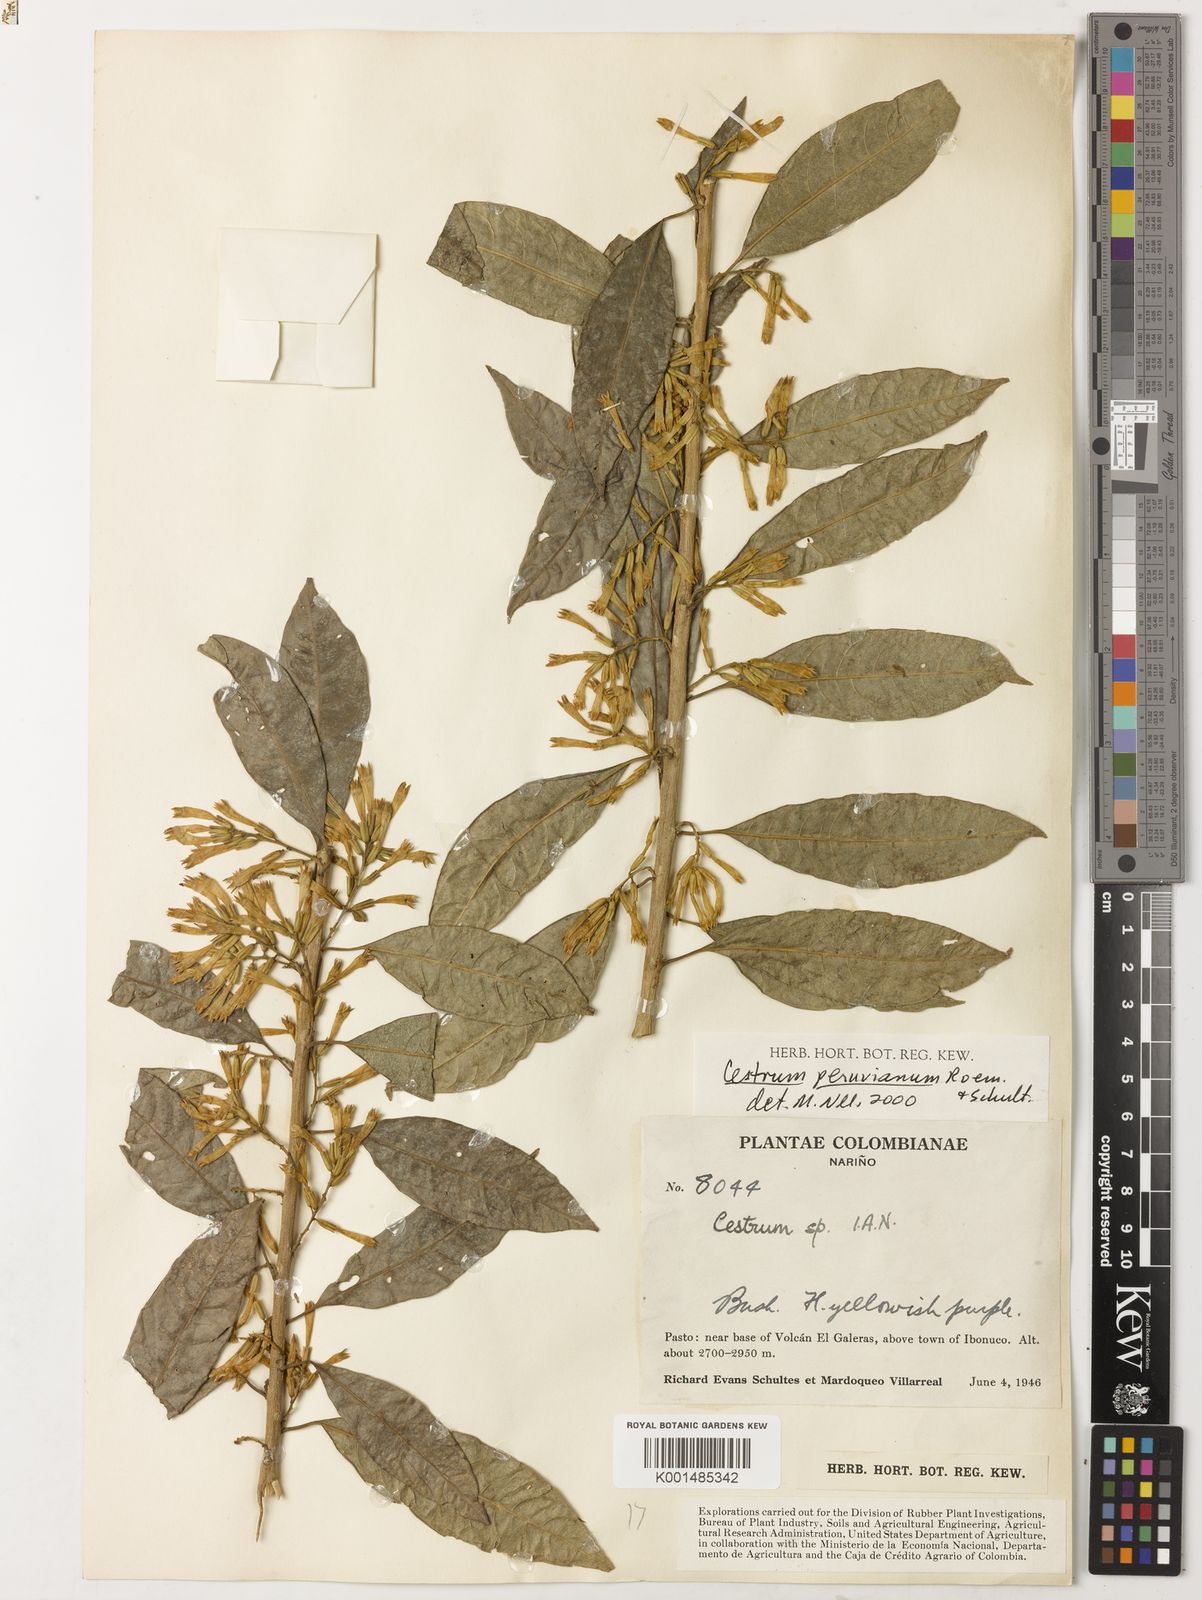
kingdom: Plantae
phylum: Tracheophyta
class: Magnoliopsida
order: Solanales
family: Solanaceae
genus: Cestrum
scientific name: Cestrum peruvianum
